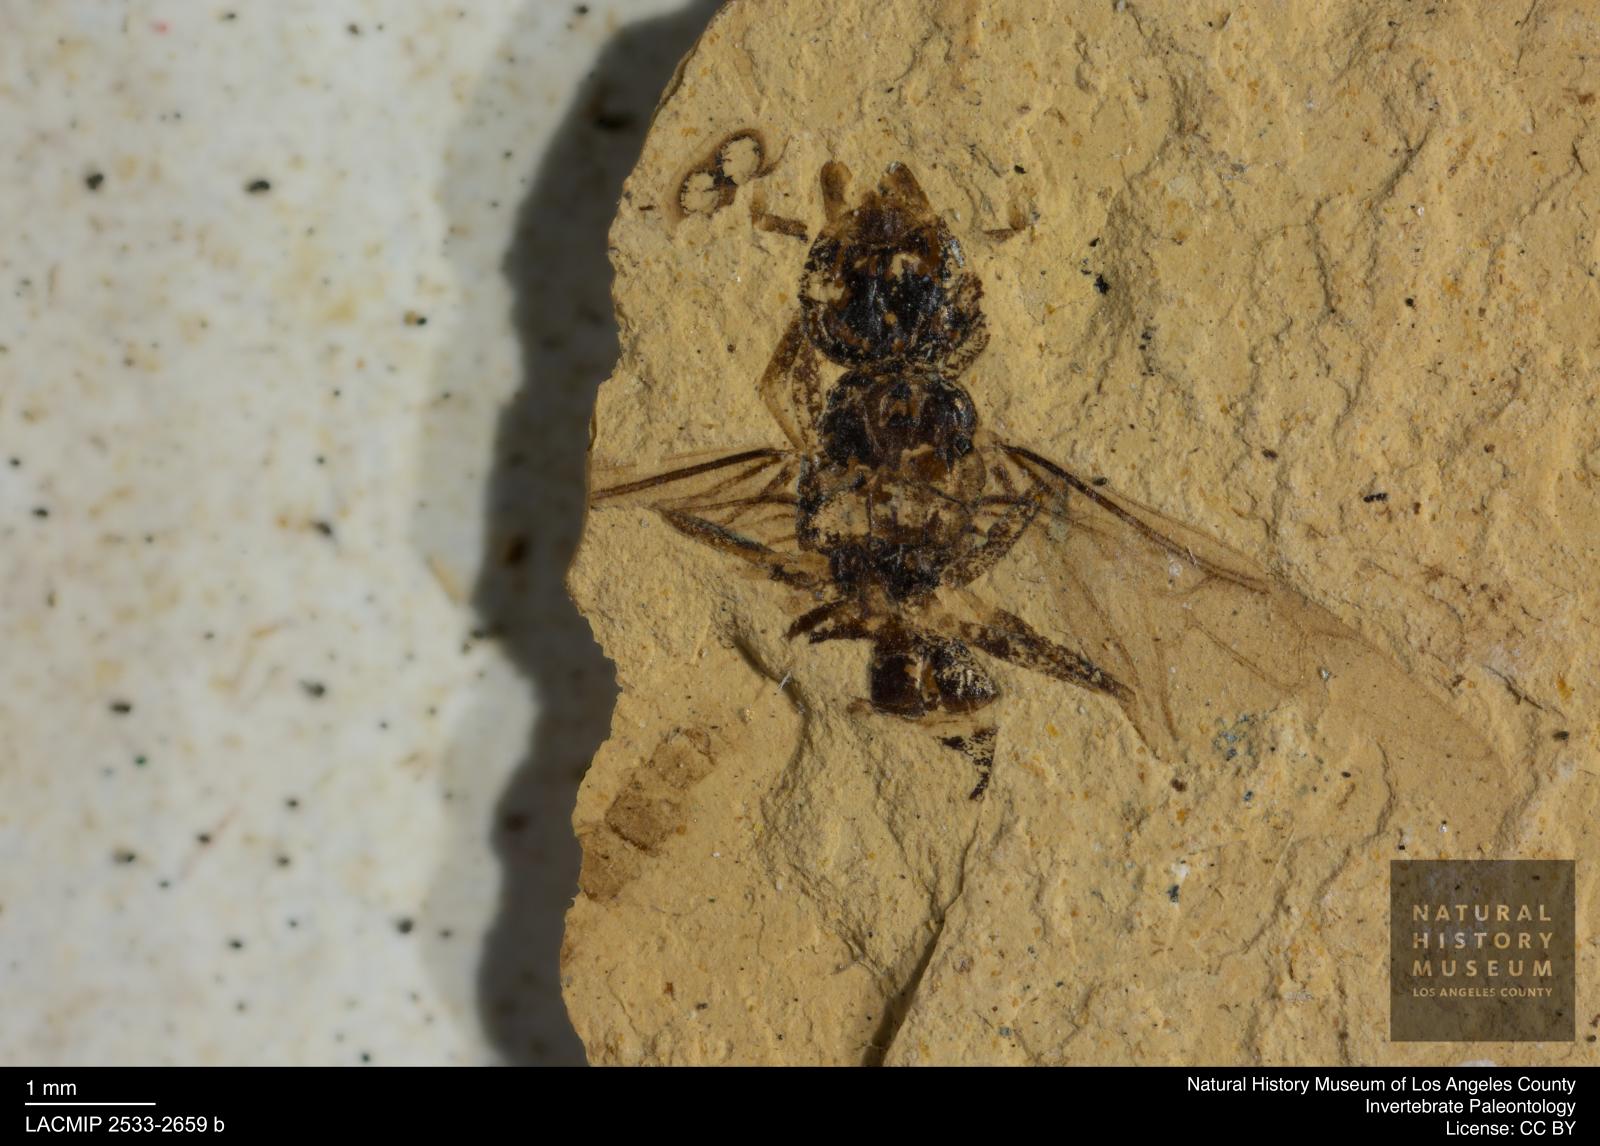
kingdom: Animalia
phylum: Arthropoda
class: Insecta
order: Hymenoptera
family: Formicidae
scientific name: Formicidae
